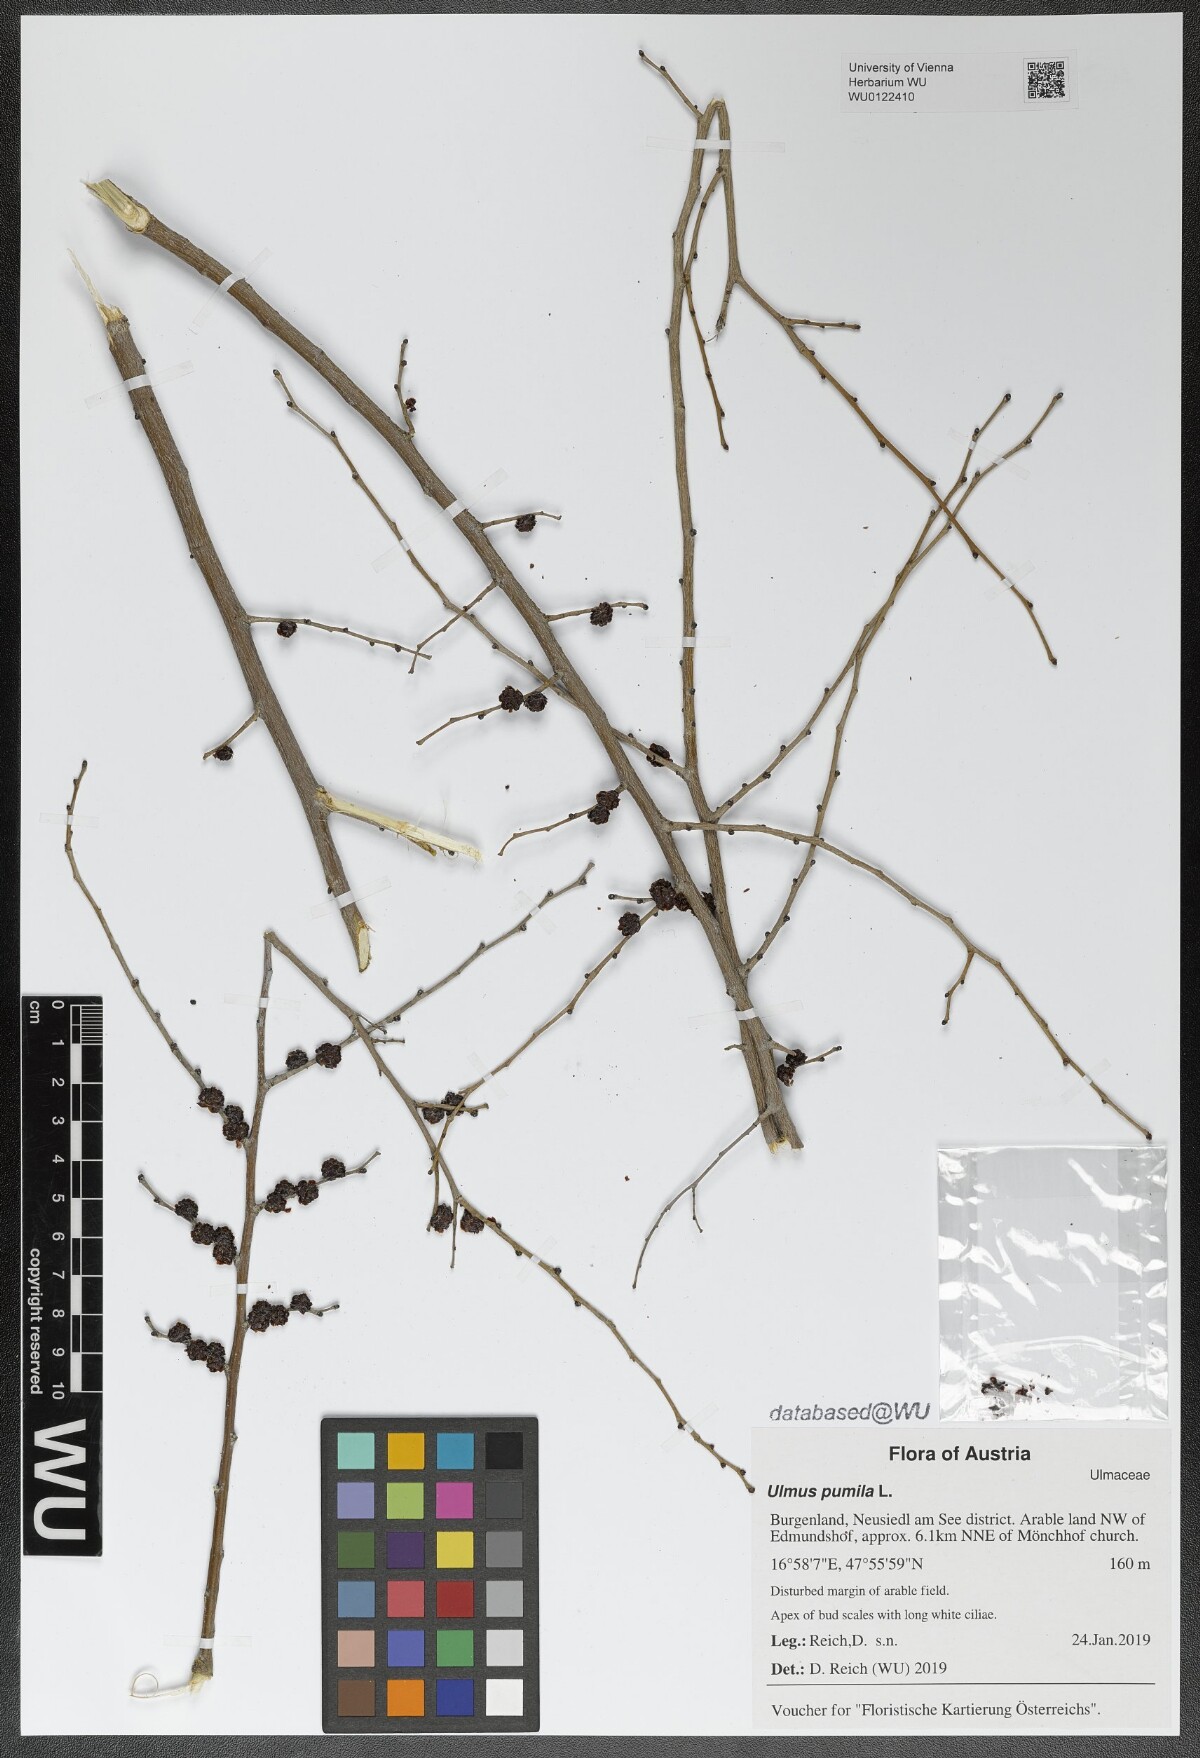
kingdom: Plantae
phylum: Tracheophyta
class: Magnoliopsida
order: Rosales
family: Ulmaceae
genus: Ulmus
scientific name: Ulmus pumila
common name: Siberian elm
